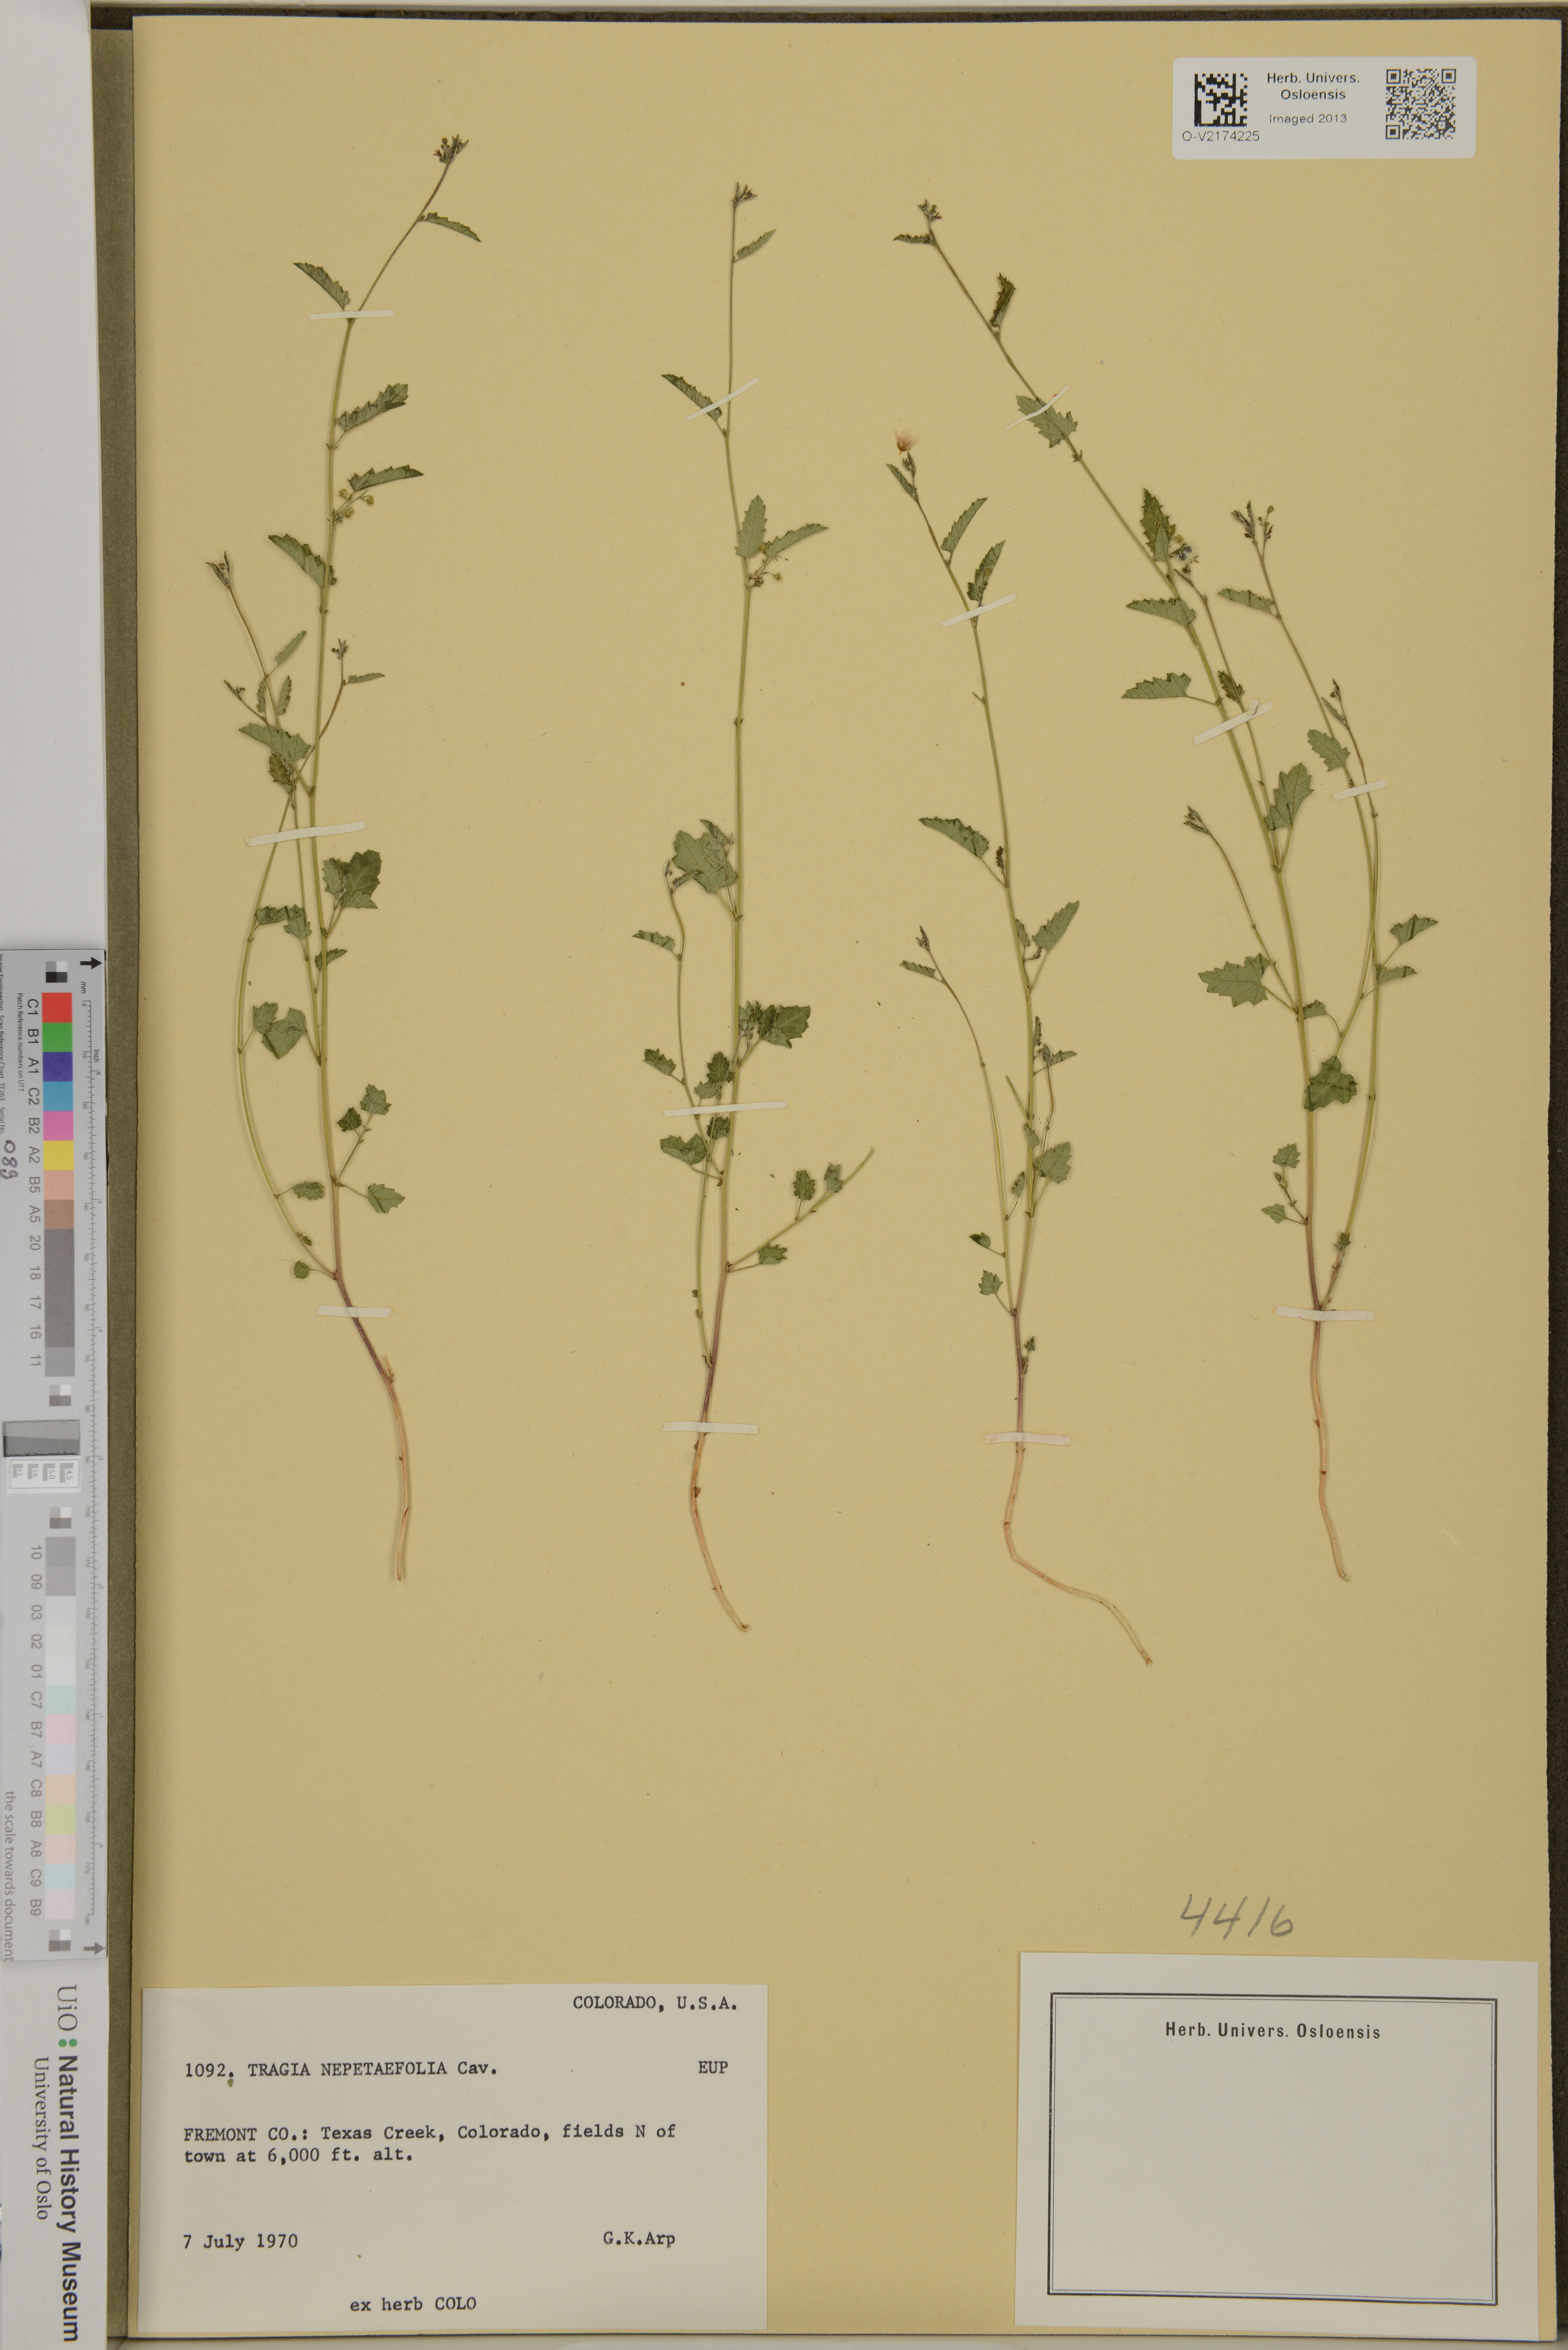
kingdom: Plantae
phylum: Tracheophyta
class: Magnoliopsida
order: Malpighiales
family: Euphorbiaceae
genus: Tragia
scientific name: Tragia nepetifolia
